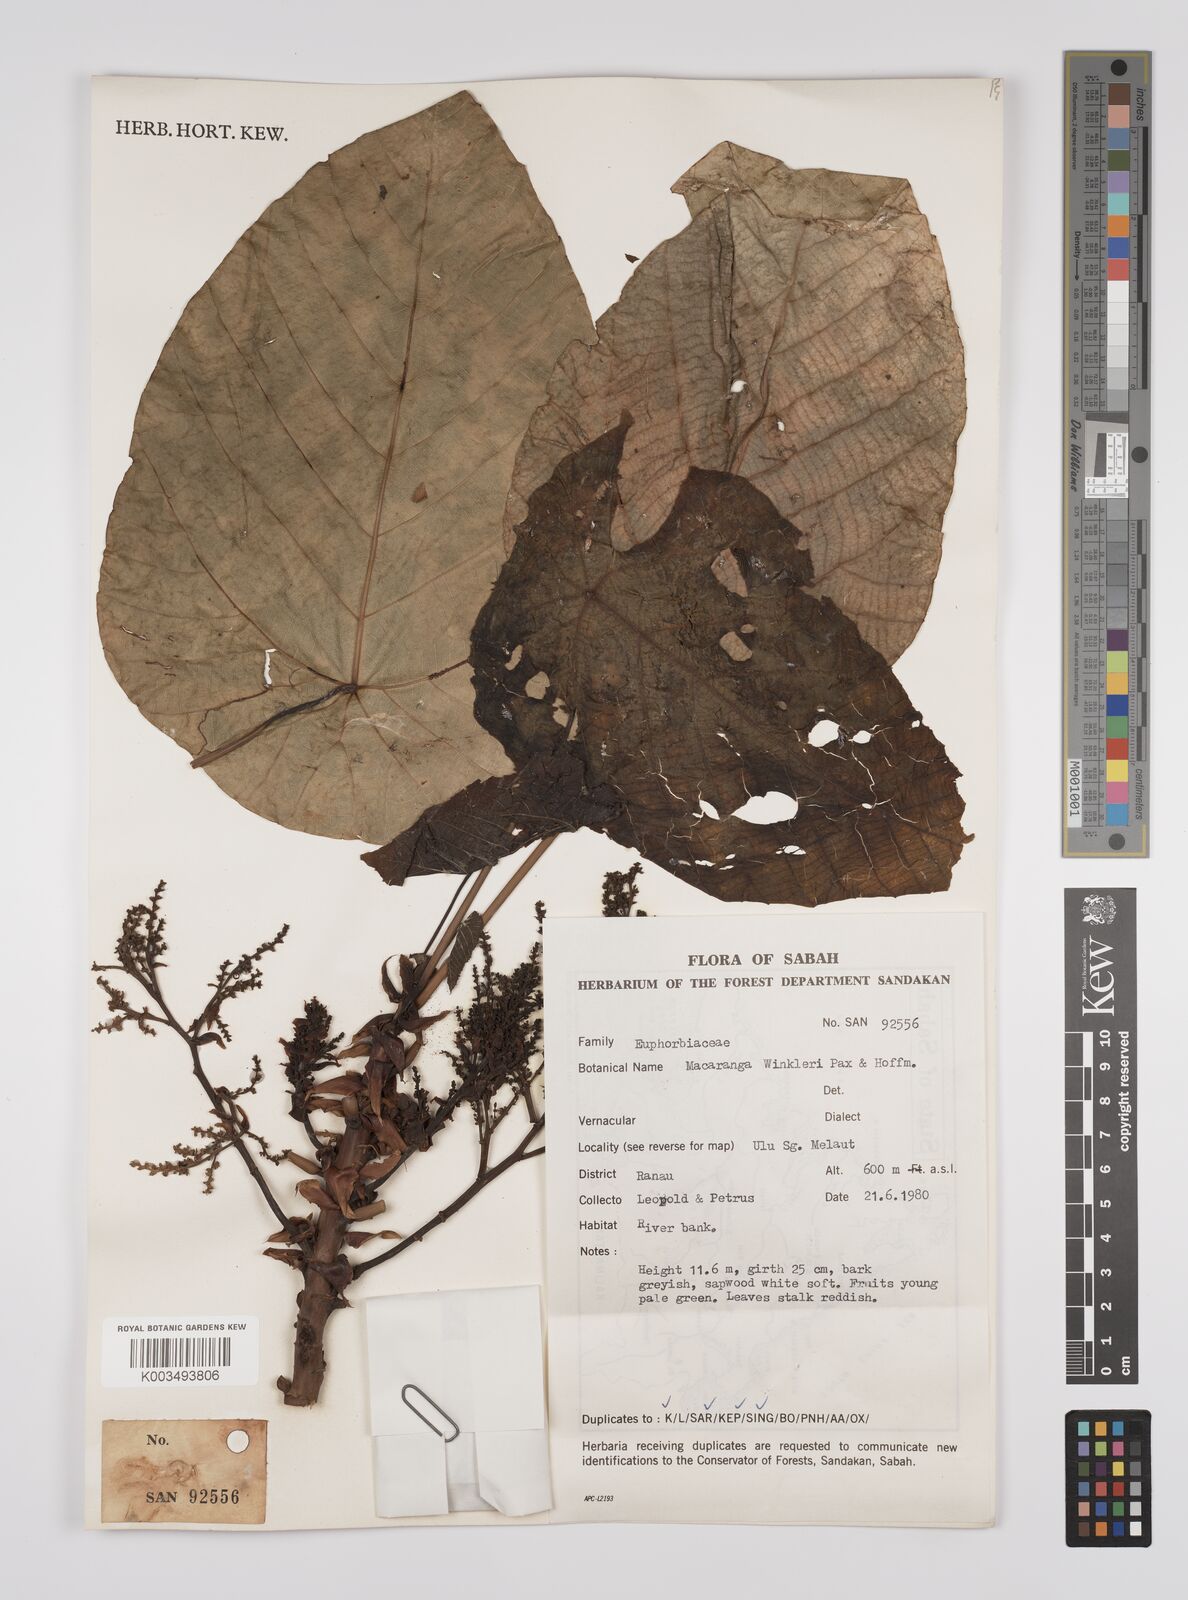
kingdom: Plantae
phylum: Tracheophyta
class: Magnoliopsida
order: Malpighiales
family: Euphorbiaceae
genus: Macaranga
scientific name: Macaranga winkleri
